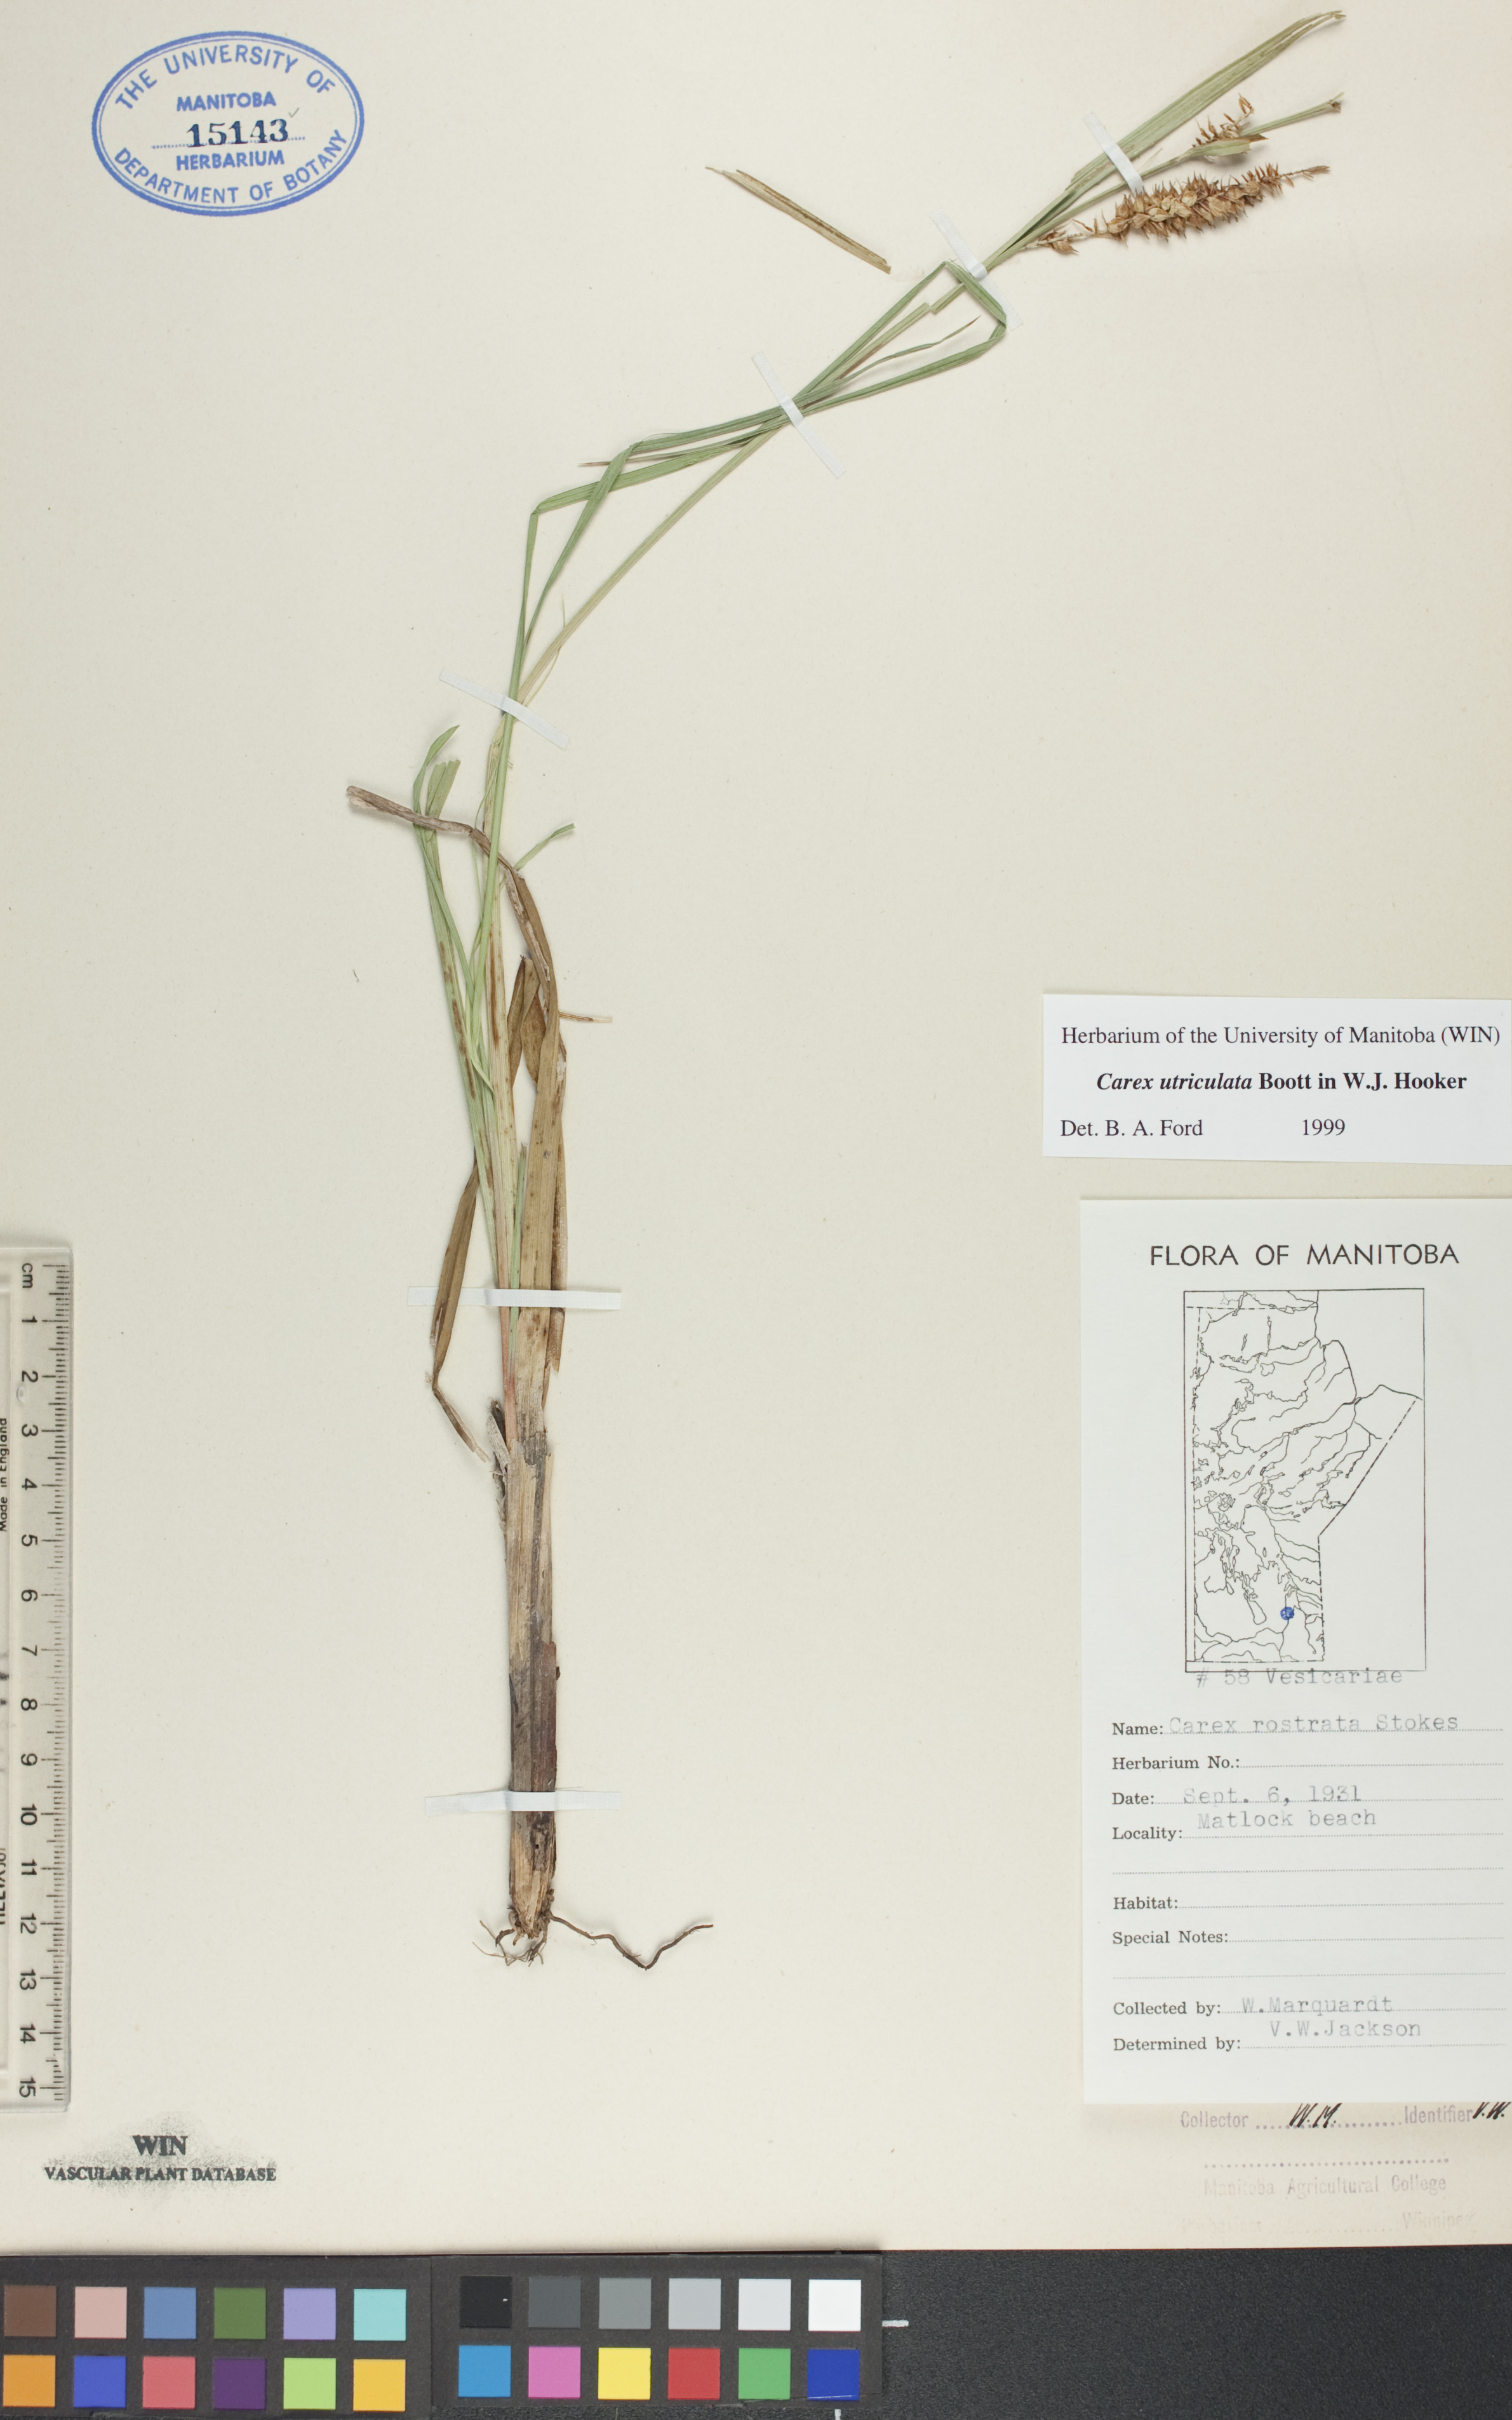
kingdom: Plantae
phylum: Tracheophyta
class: Liliopsida
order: Poales
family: Cyperaceae
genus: Carex
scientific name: Carex utriculata
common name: Beaked sedge
